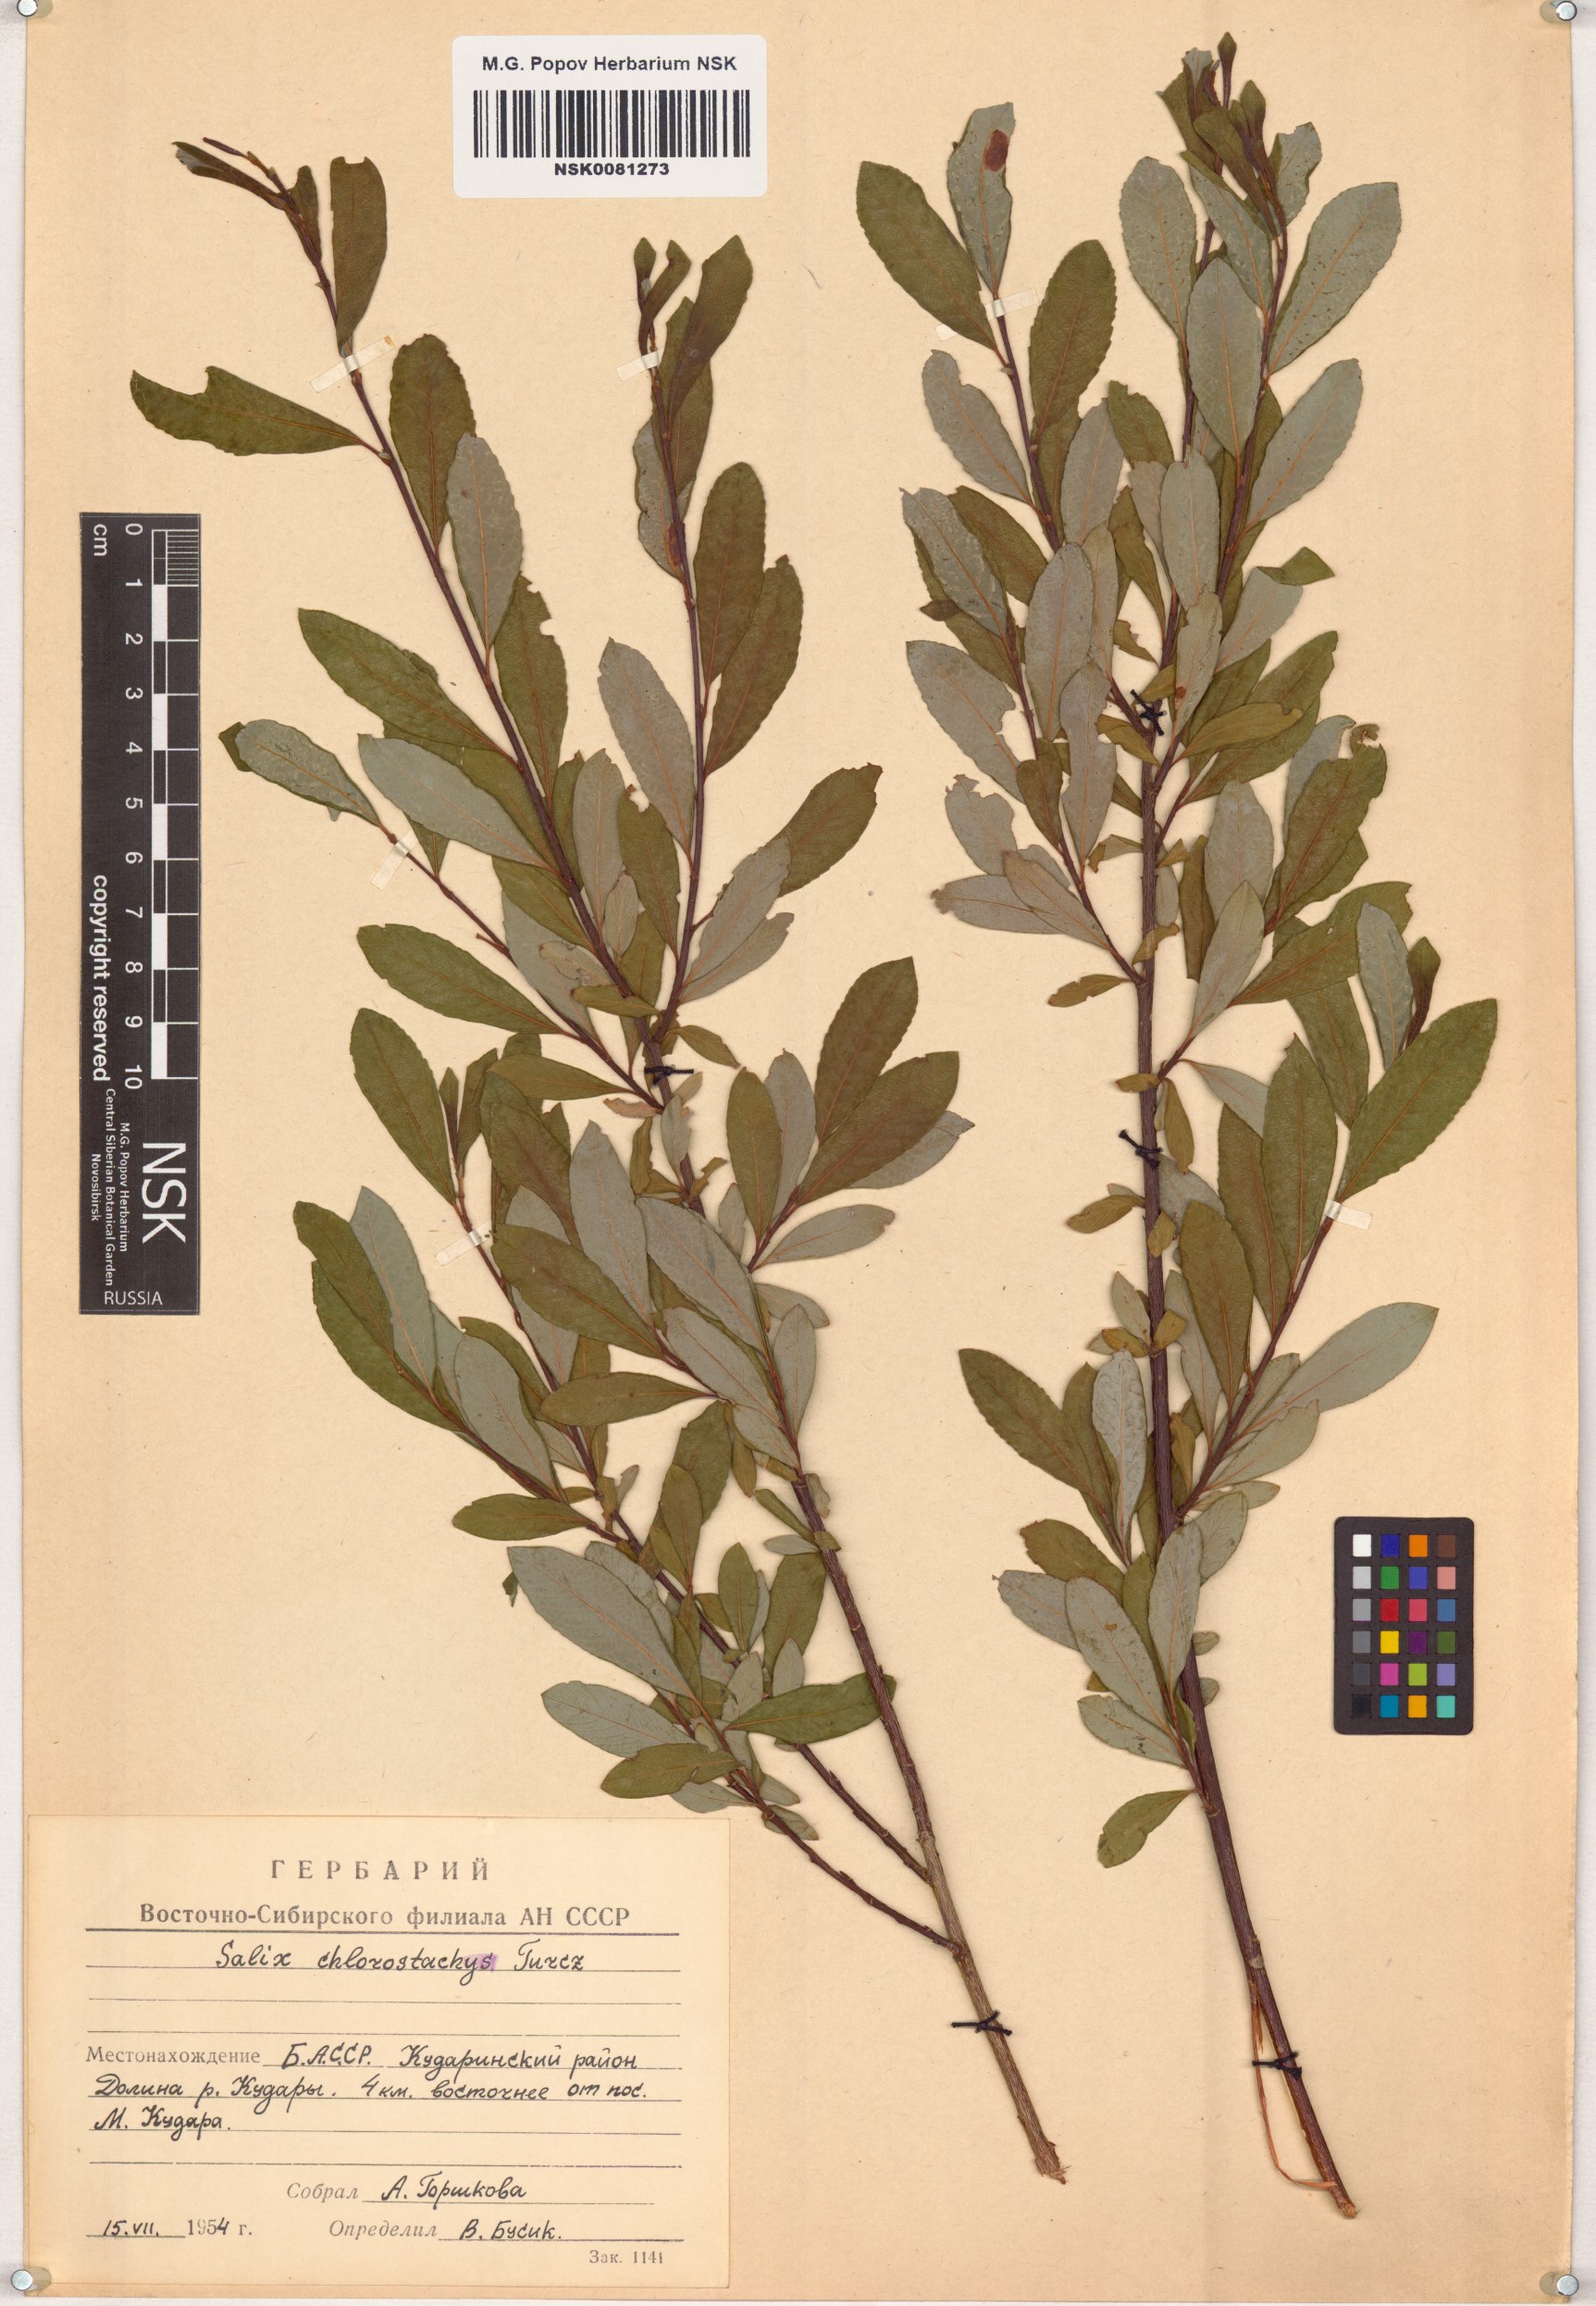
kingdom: Plantae
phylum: Tracheophyta
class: Magnoliopsida
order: Malpighiales
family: Salicaceae
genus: Salix
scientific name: Salix rhamnifolia
